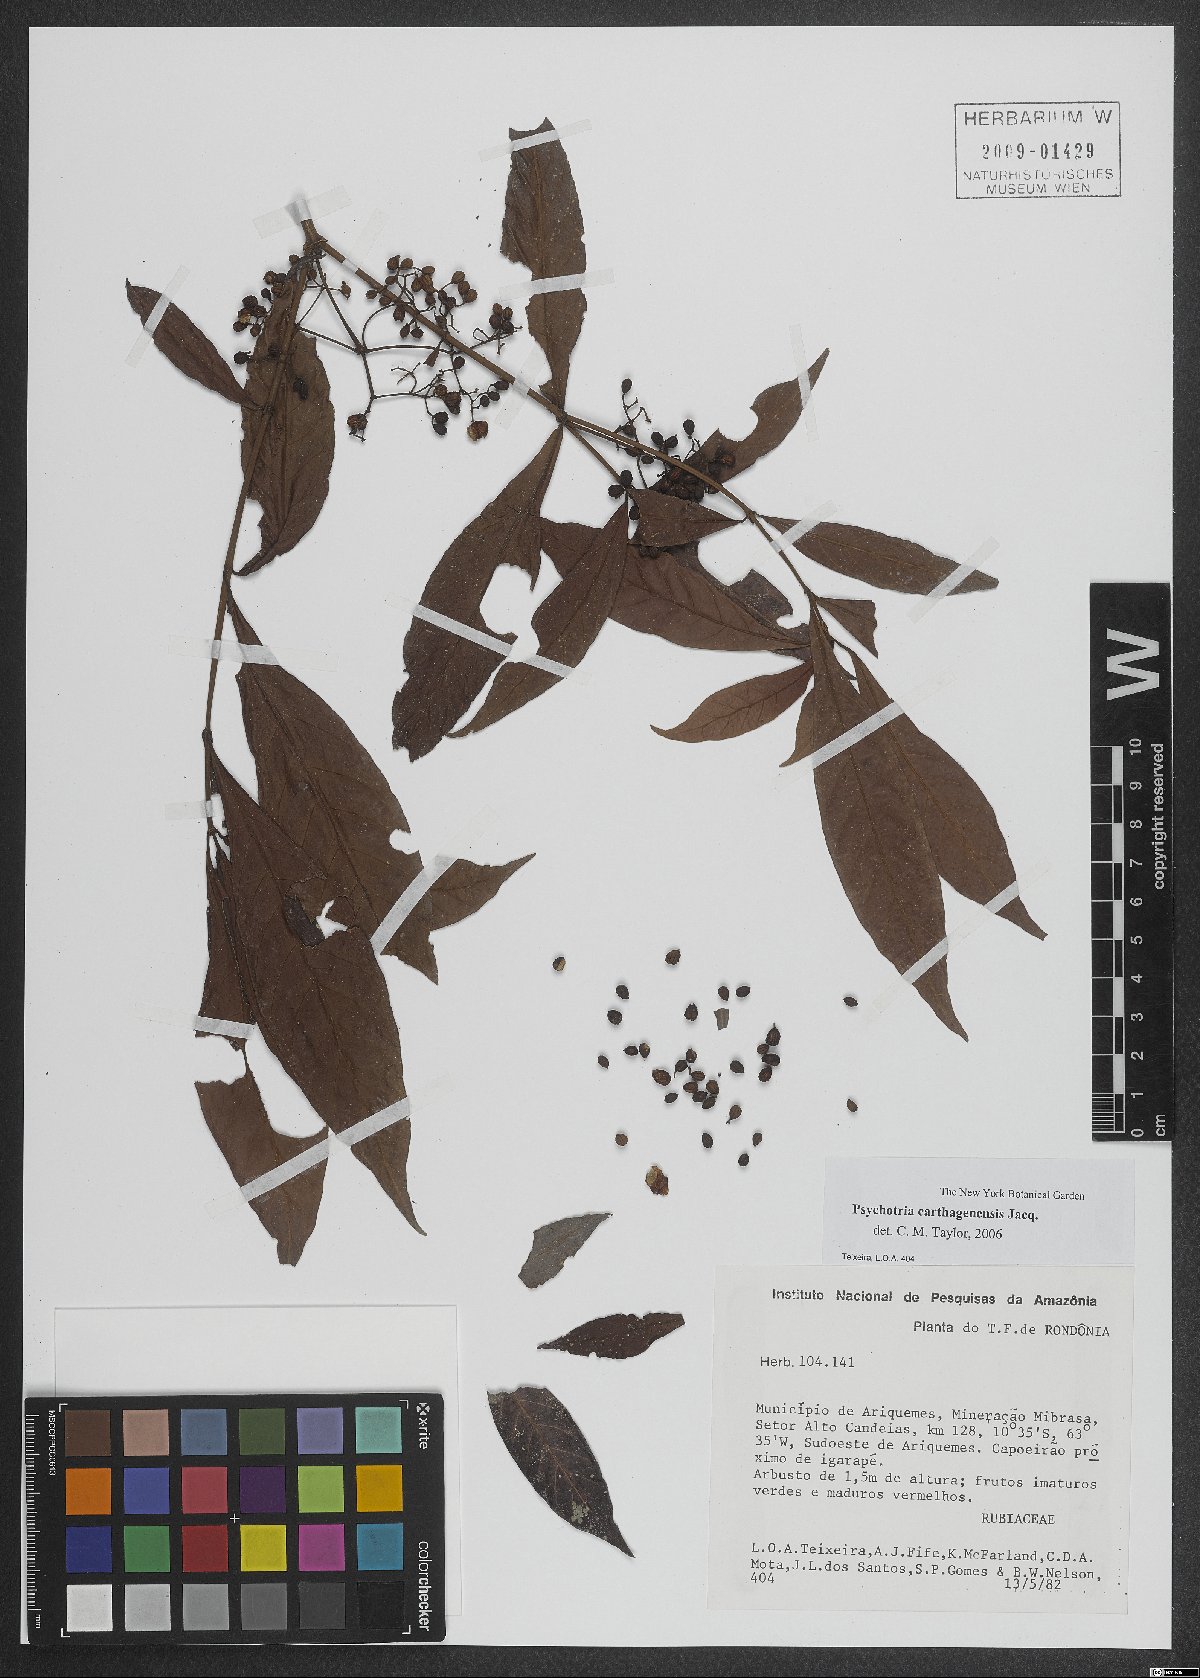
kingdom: Plantae
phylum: Tracheophyta
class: Magnoliopsida
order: Gentianales
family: Rubiaceae
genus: Psychotria
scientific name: Psychotria carthagenensis
